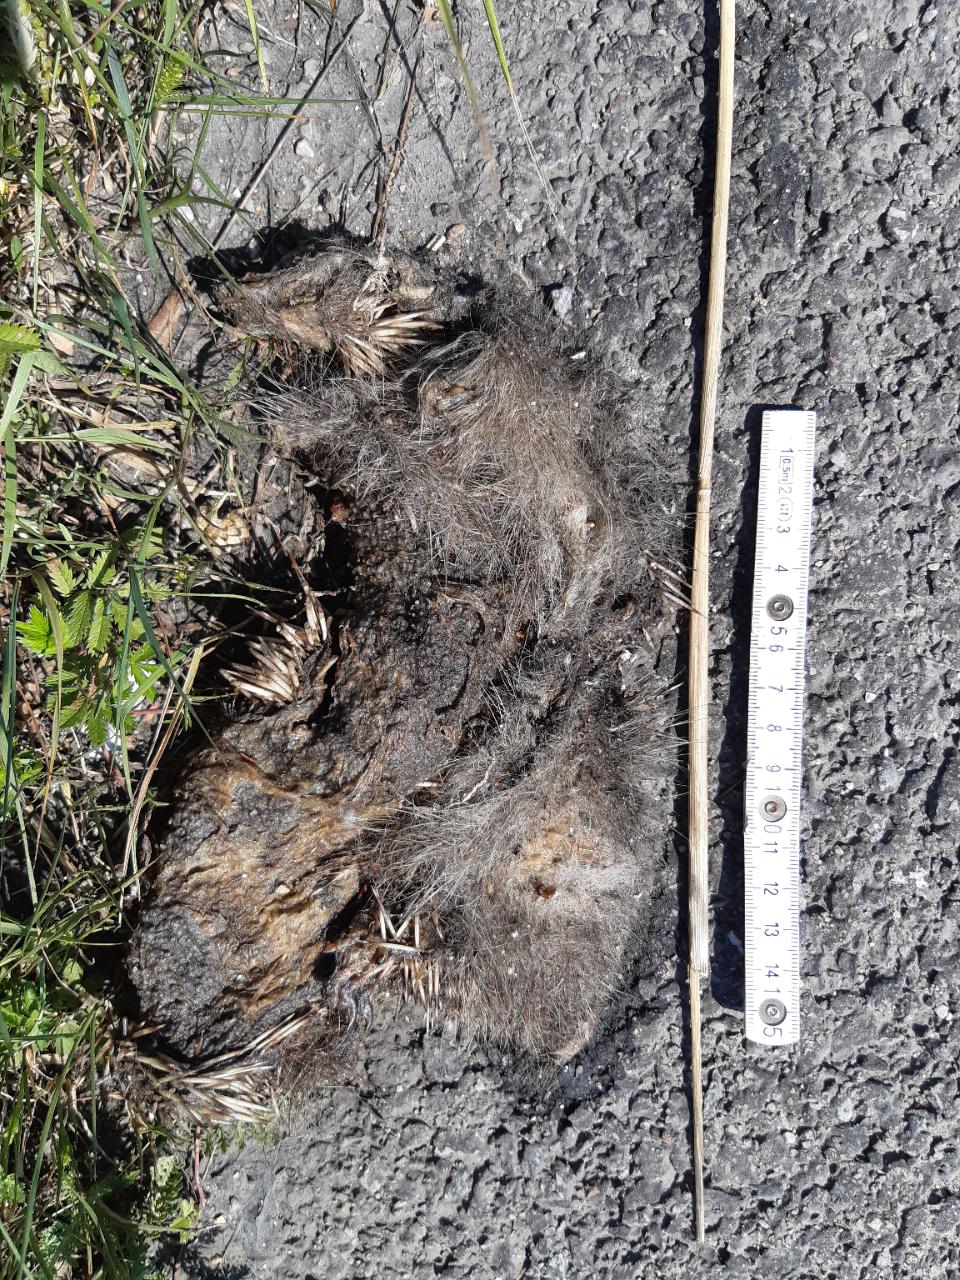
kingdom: Animalia
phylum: Chordata
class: Mammalia
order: Erinaceomorpha
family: Erinaceidae
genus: Erinaceus
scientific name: Erinaceus
